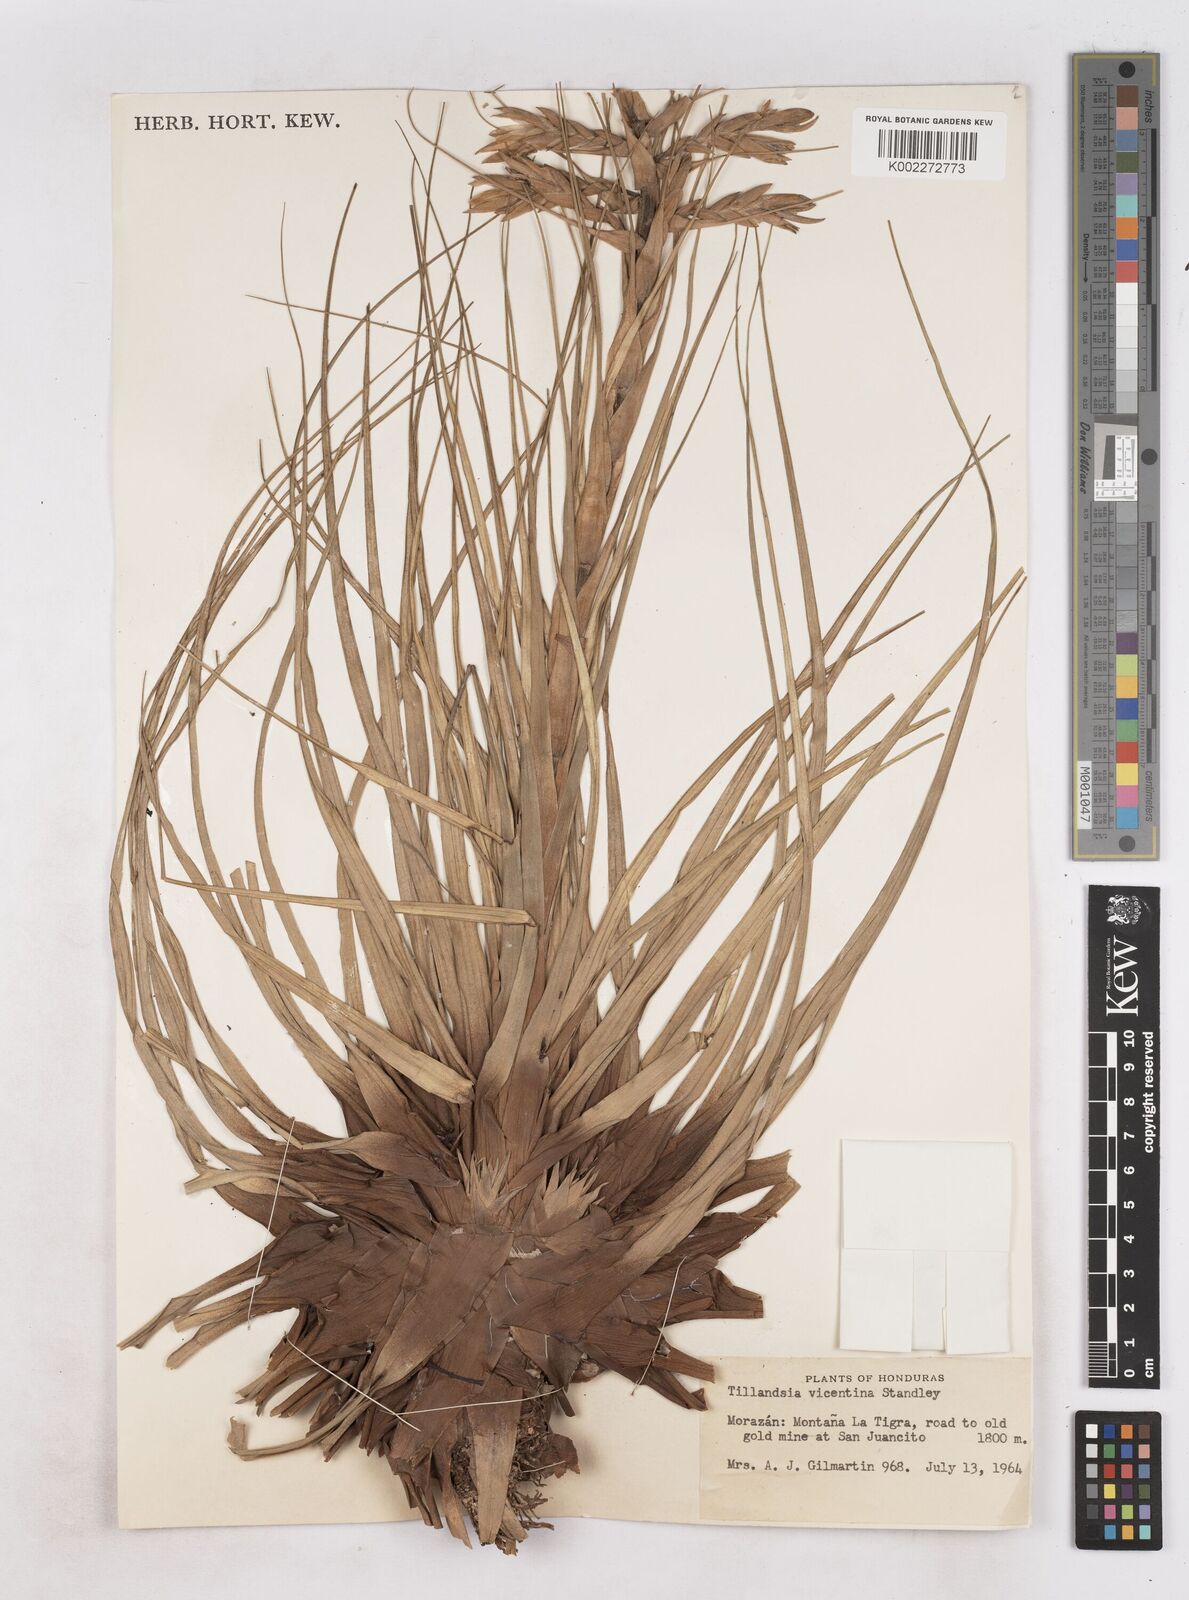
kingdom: Plantae
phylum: Tracheophyta
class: Liliopsida
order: Poales
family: Bromeliaceae
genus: Tillandsia
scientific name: Tillandsia vicentina
